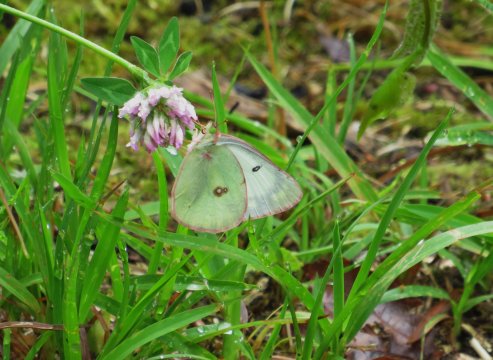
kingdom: Animalia
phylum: Arthropoda
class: Insecta
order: Lepidoptera
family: Pieridae
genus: Colias
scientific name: Colias philodice
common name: Clouded Sulphur
